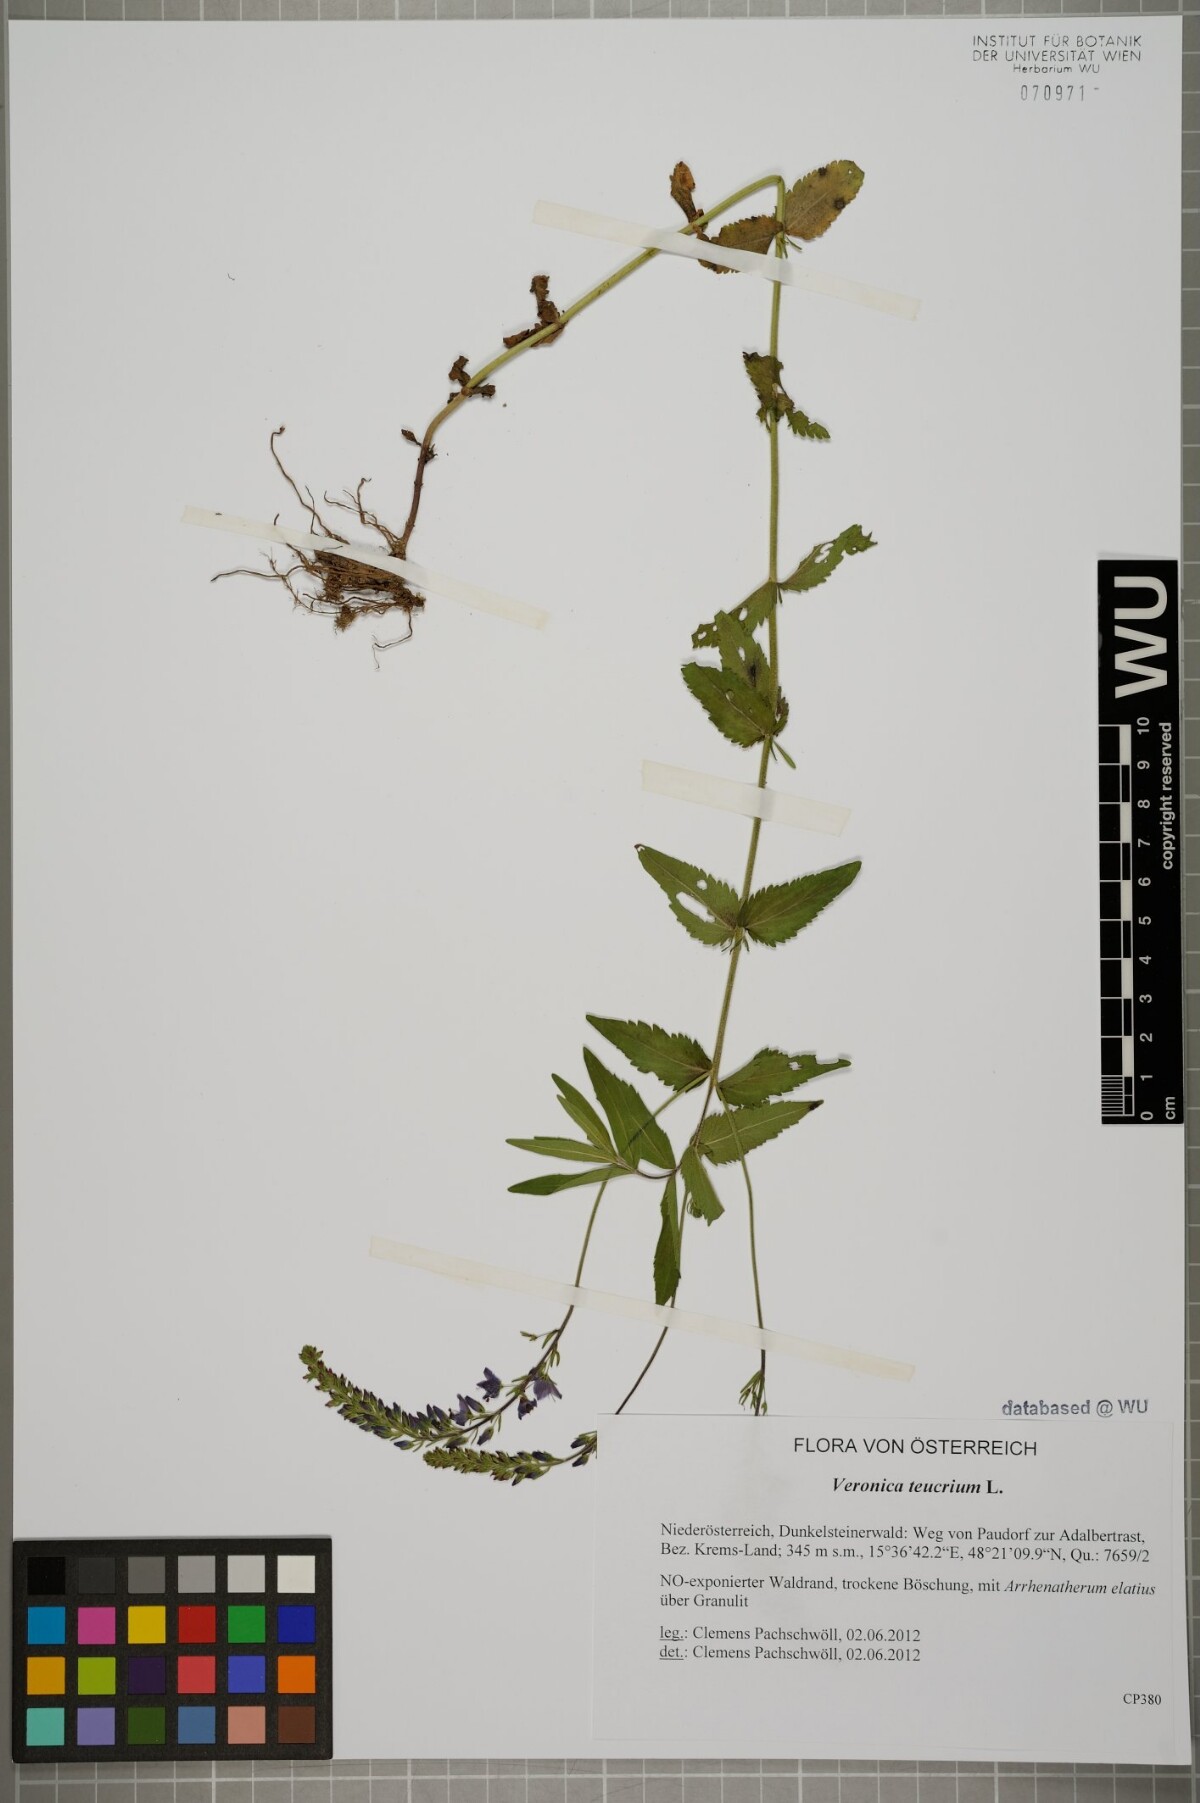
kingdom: Plantae
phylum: Tracheophyta
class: Magnoliopsida
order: Lamiales
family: Plantaginaceae
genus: Veronica
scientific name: Veronica teucrium
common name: Large speedwell
